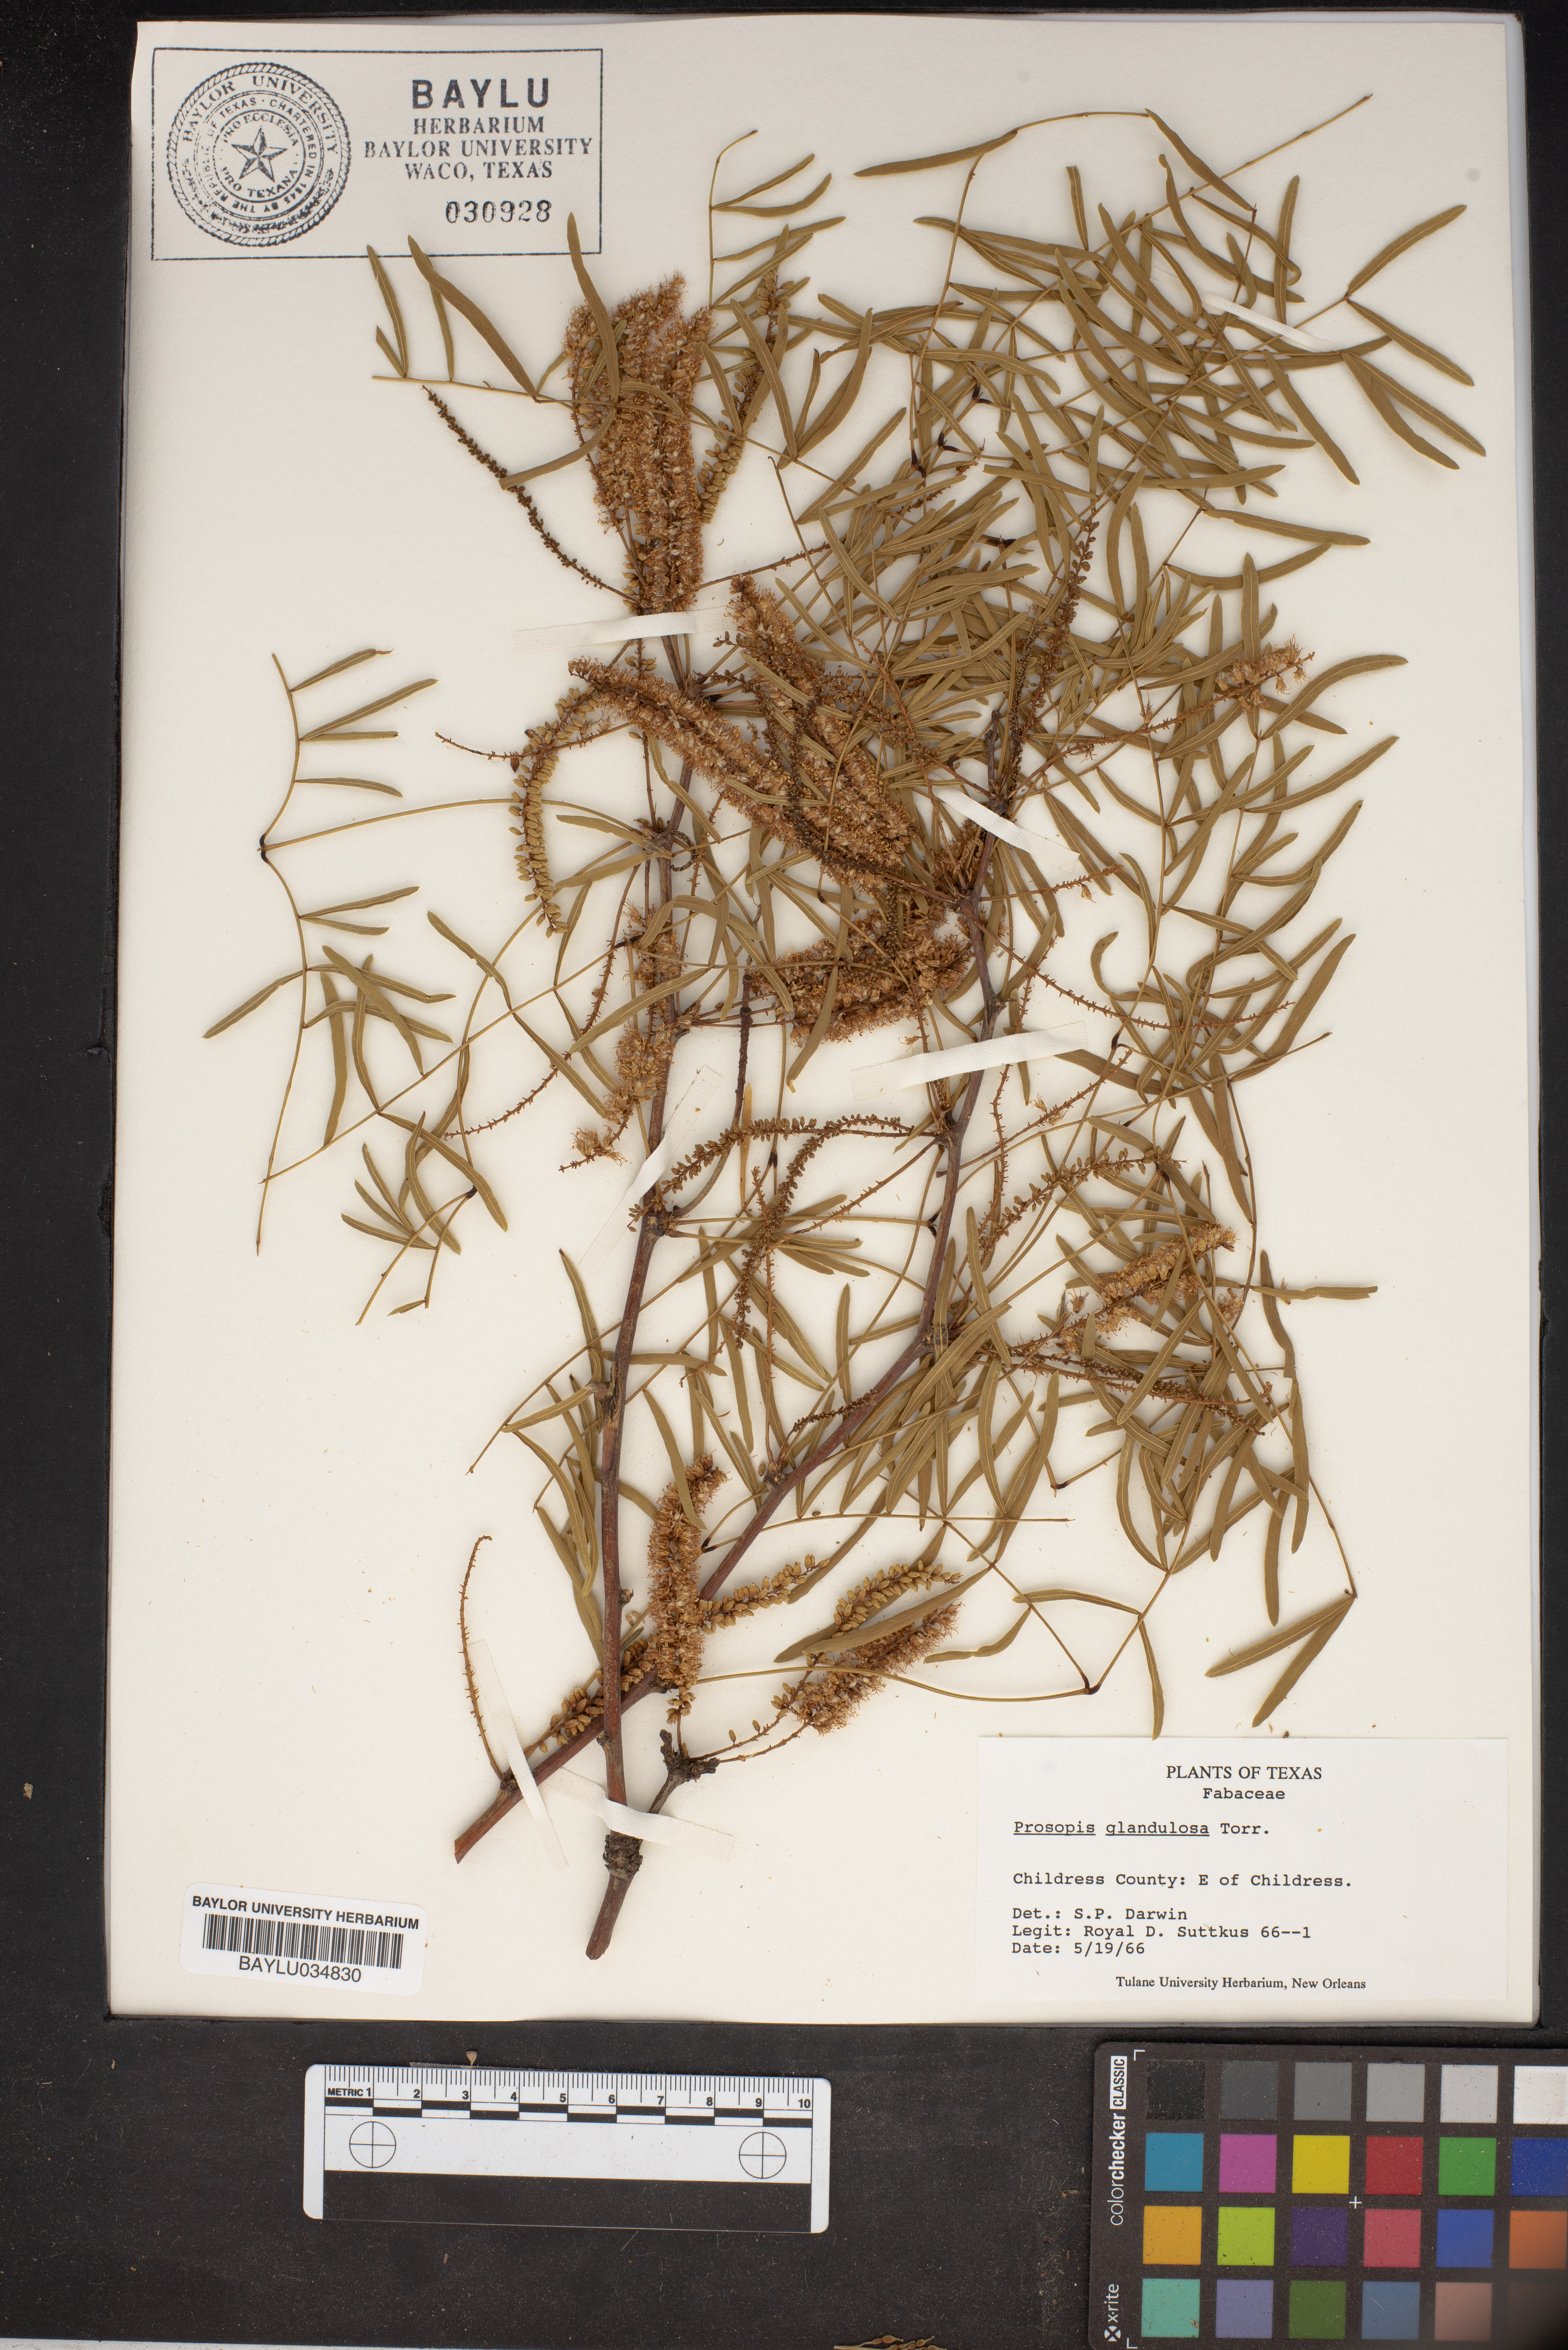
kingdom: Plantae
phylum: Tracheophyta
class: Magnoliopsida
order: Fabales
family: Fabaceae
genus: Prosopis
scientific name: Prosopis glandulosa
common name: Honey mesquite
